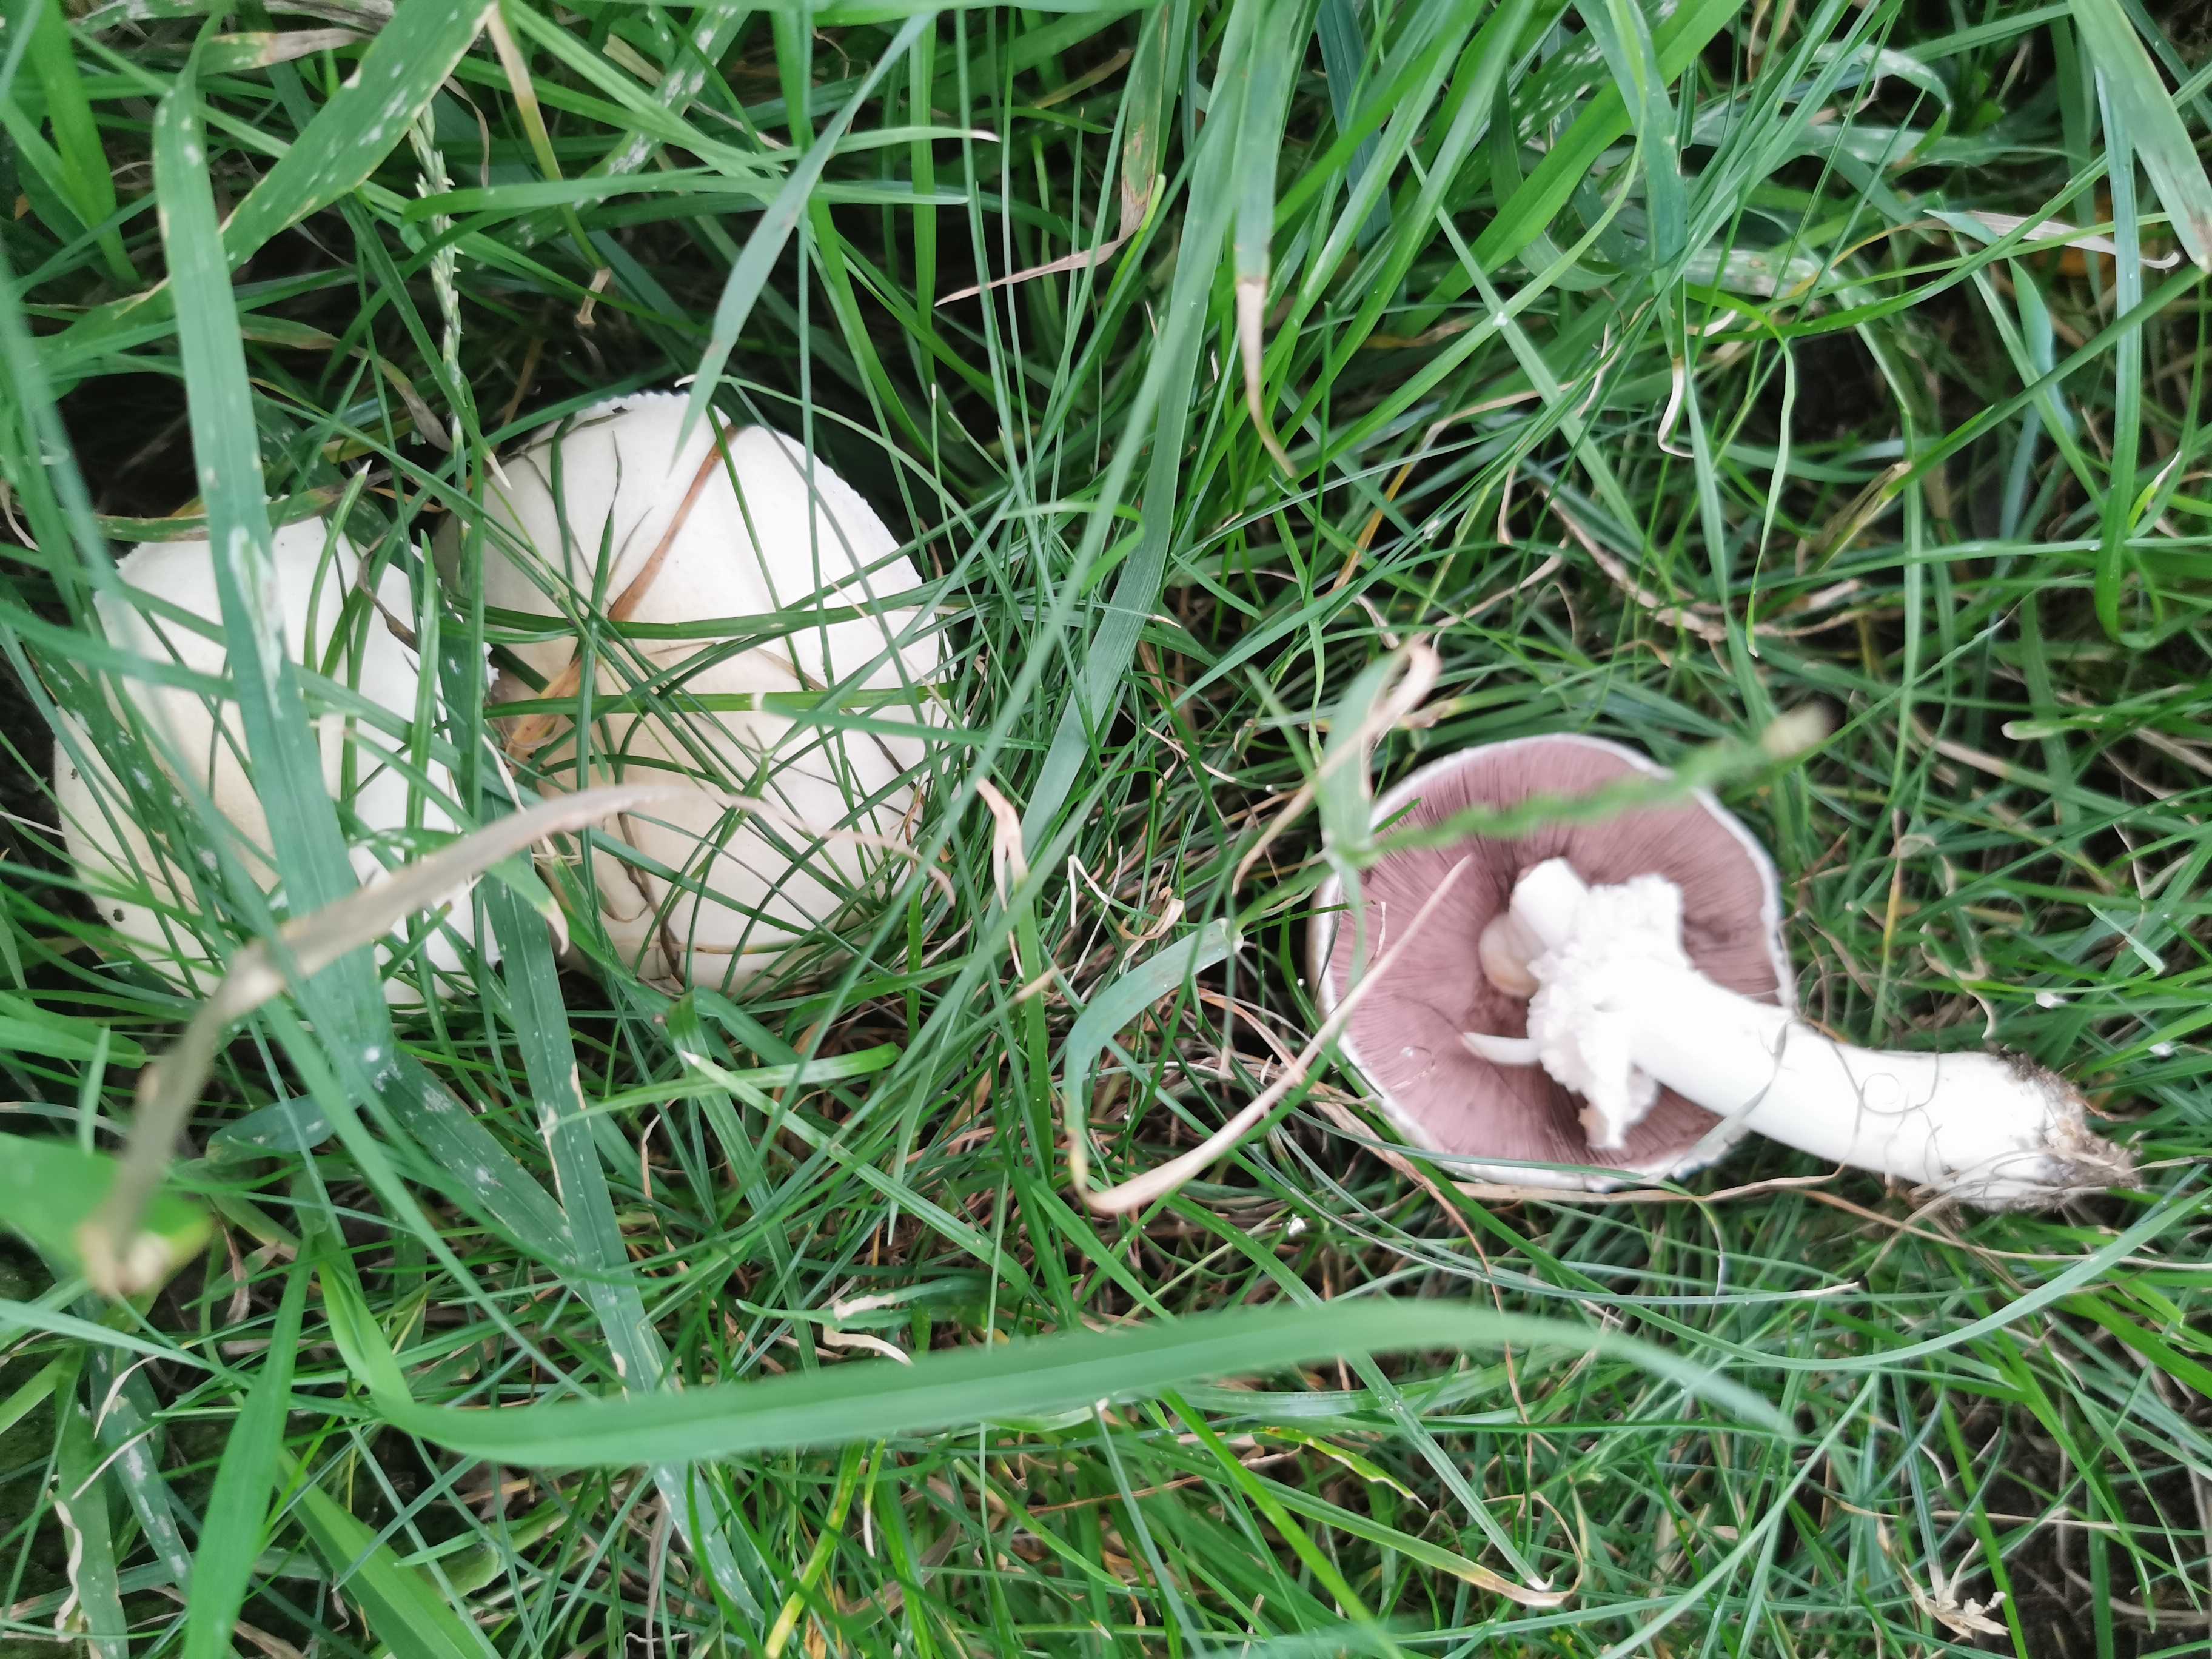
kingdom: Fungi
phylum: Basidiomycota
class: Agaricomycetes
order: Agaricales
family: Agaricaceae
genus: Agaricus
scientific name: Agaricus arvensis
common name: ager-champignon
